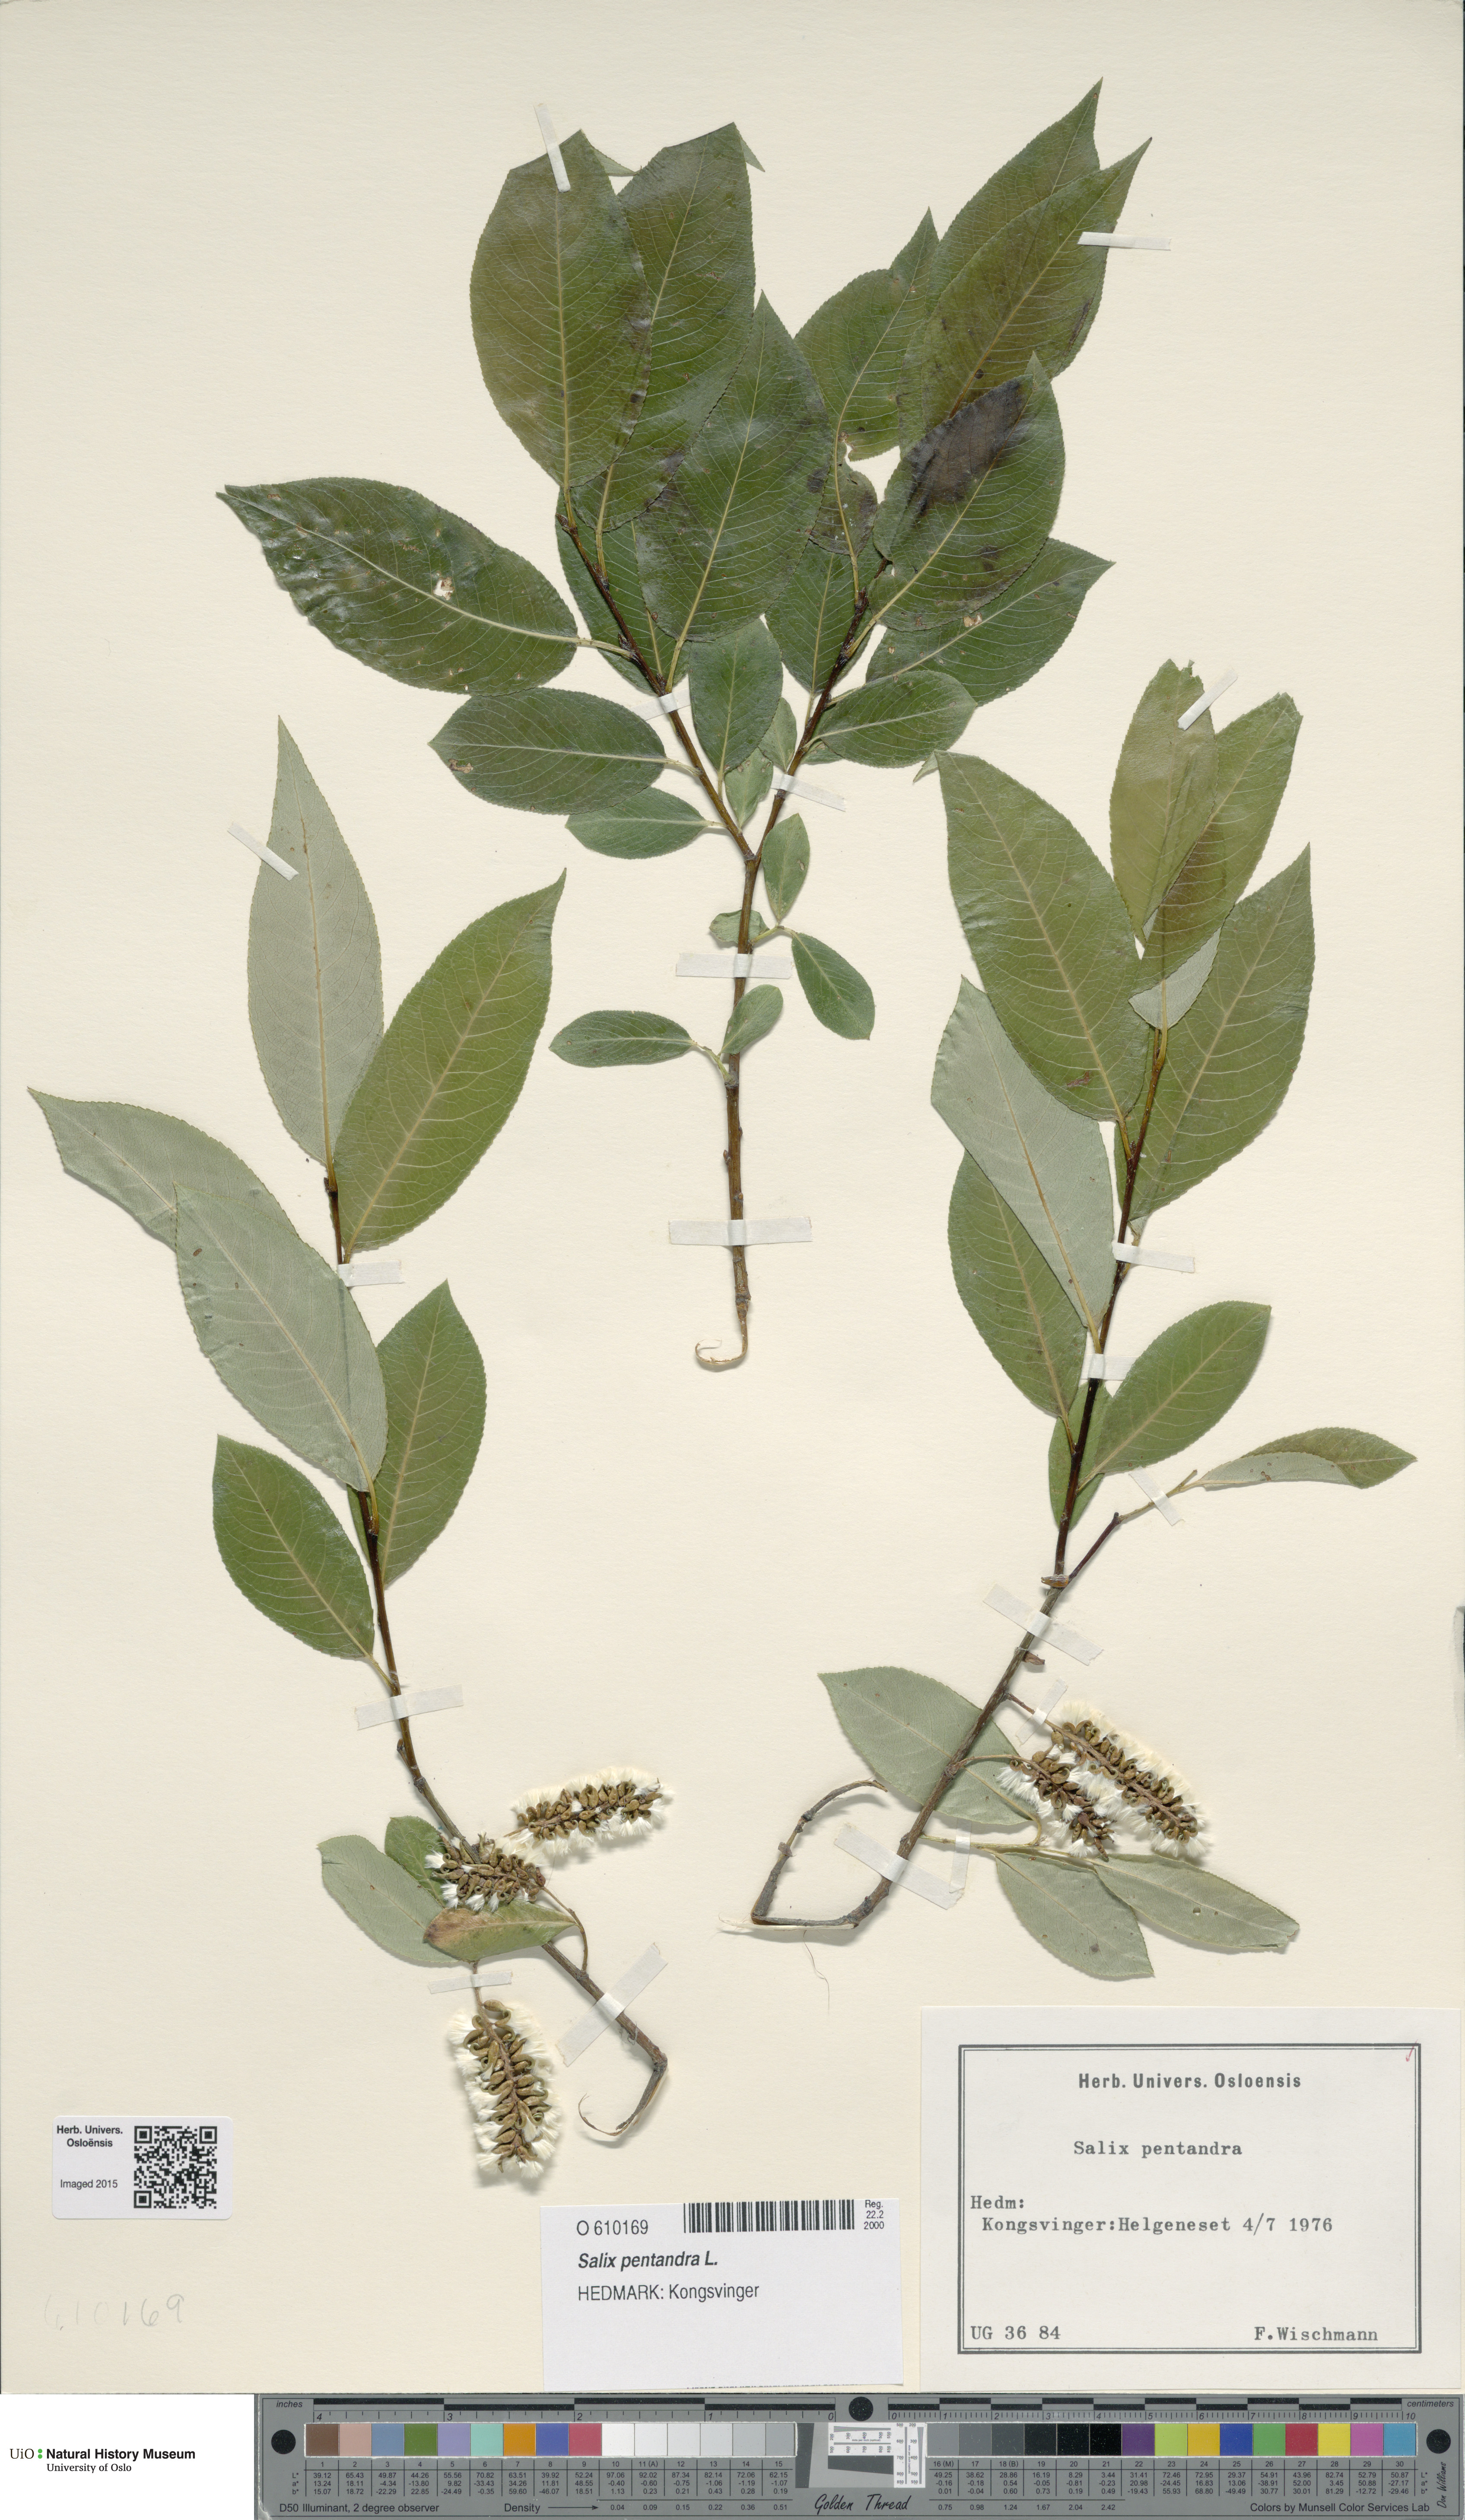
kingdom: Plantae
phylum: Tracheophyta
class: Magnoliopsida
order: Malpighiales
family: Salicaceae
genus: Salix
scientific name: Salix pentandra
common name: Bay willow
